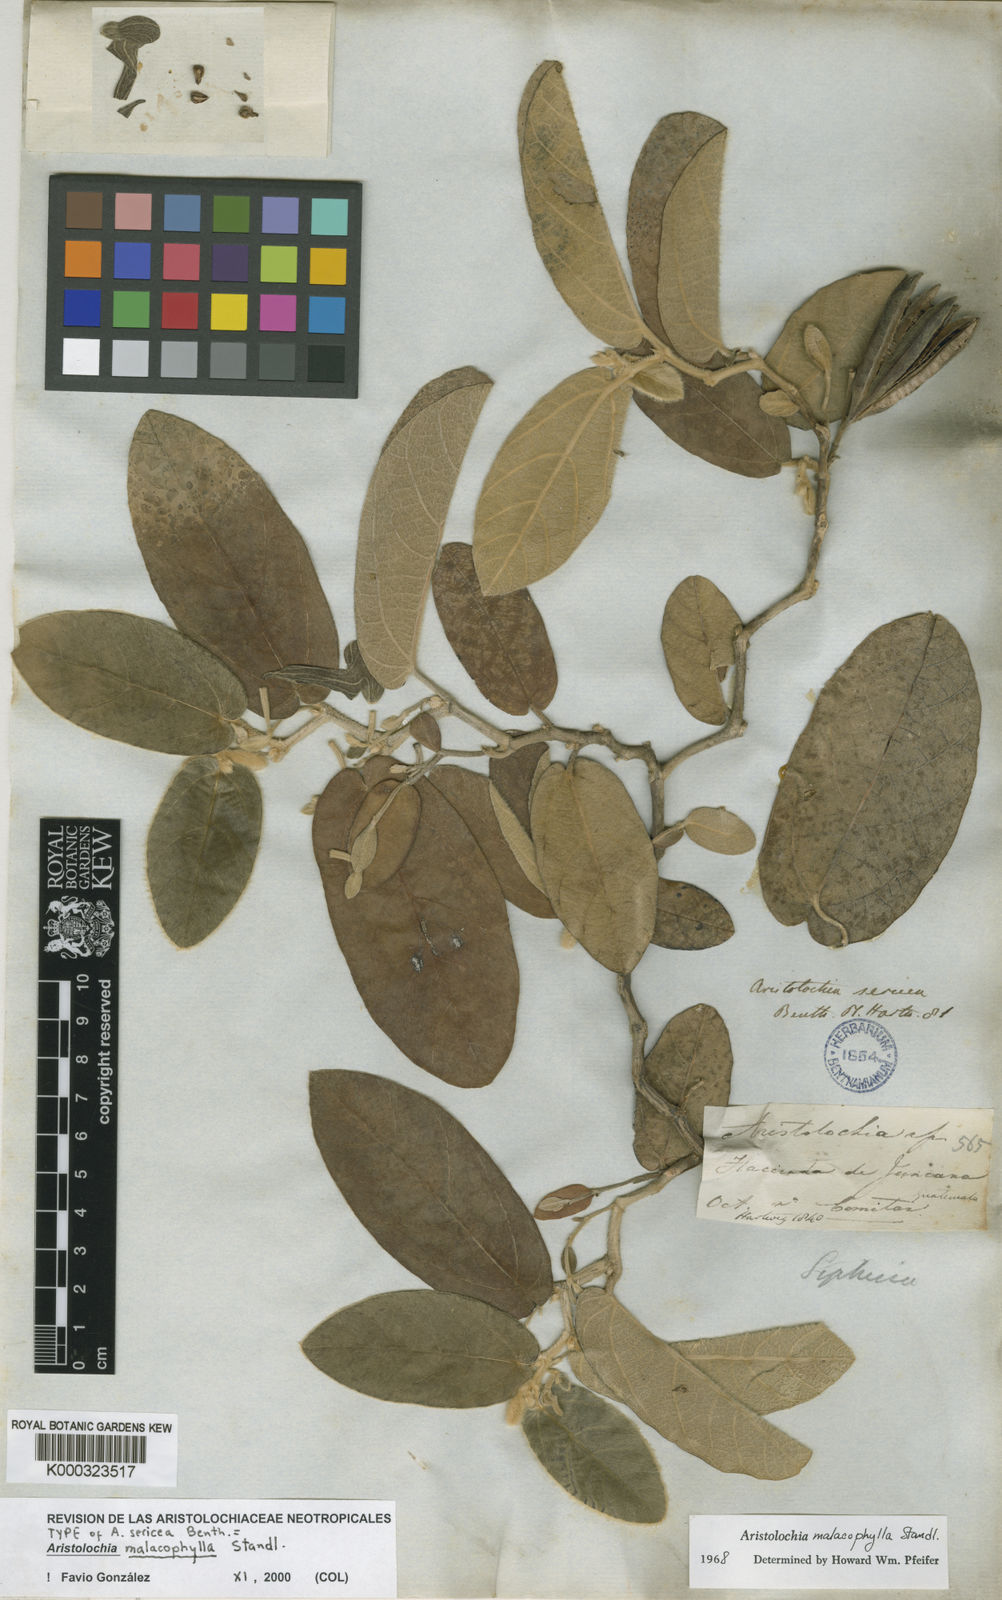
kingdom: Plantae
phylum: Tracheophyta
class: Magnoliopsida
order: Piperales
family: Aristolochiaceae
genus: Isotrema
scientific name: Isotrema malacophyllum
